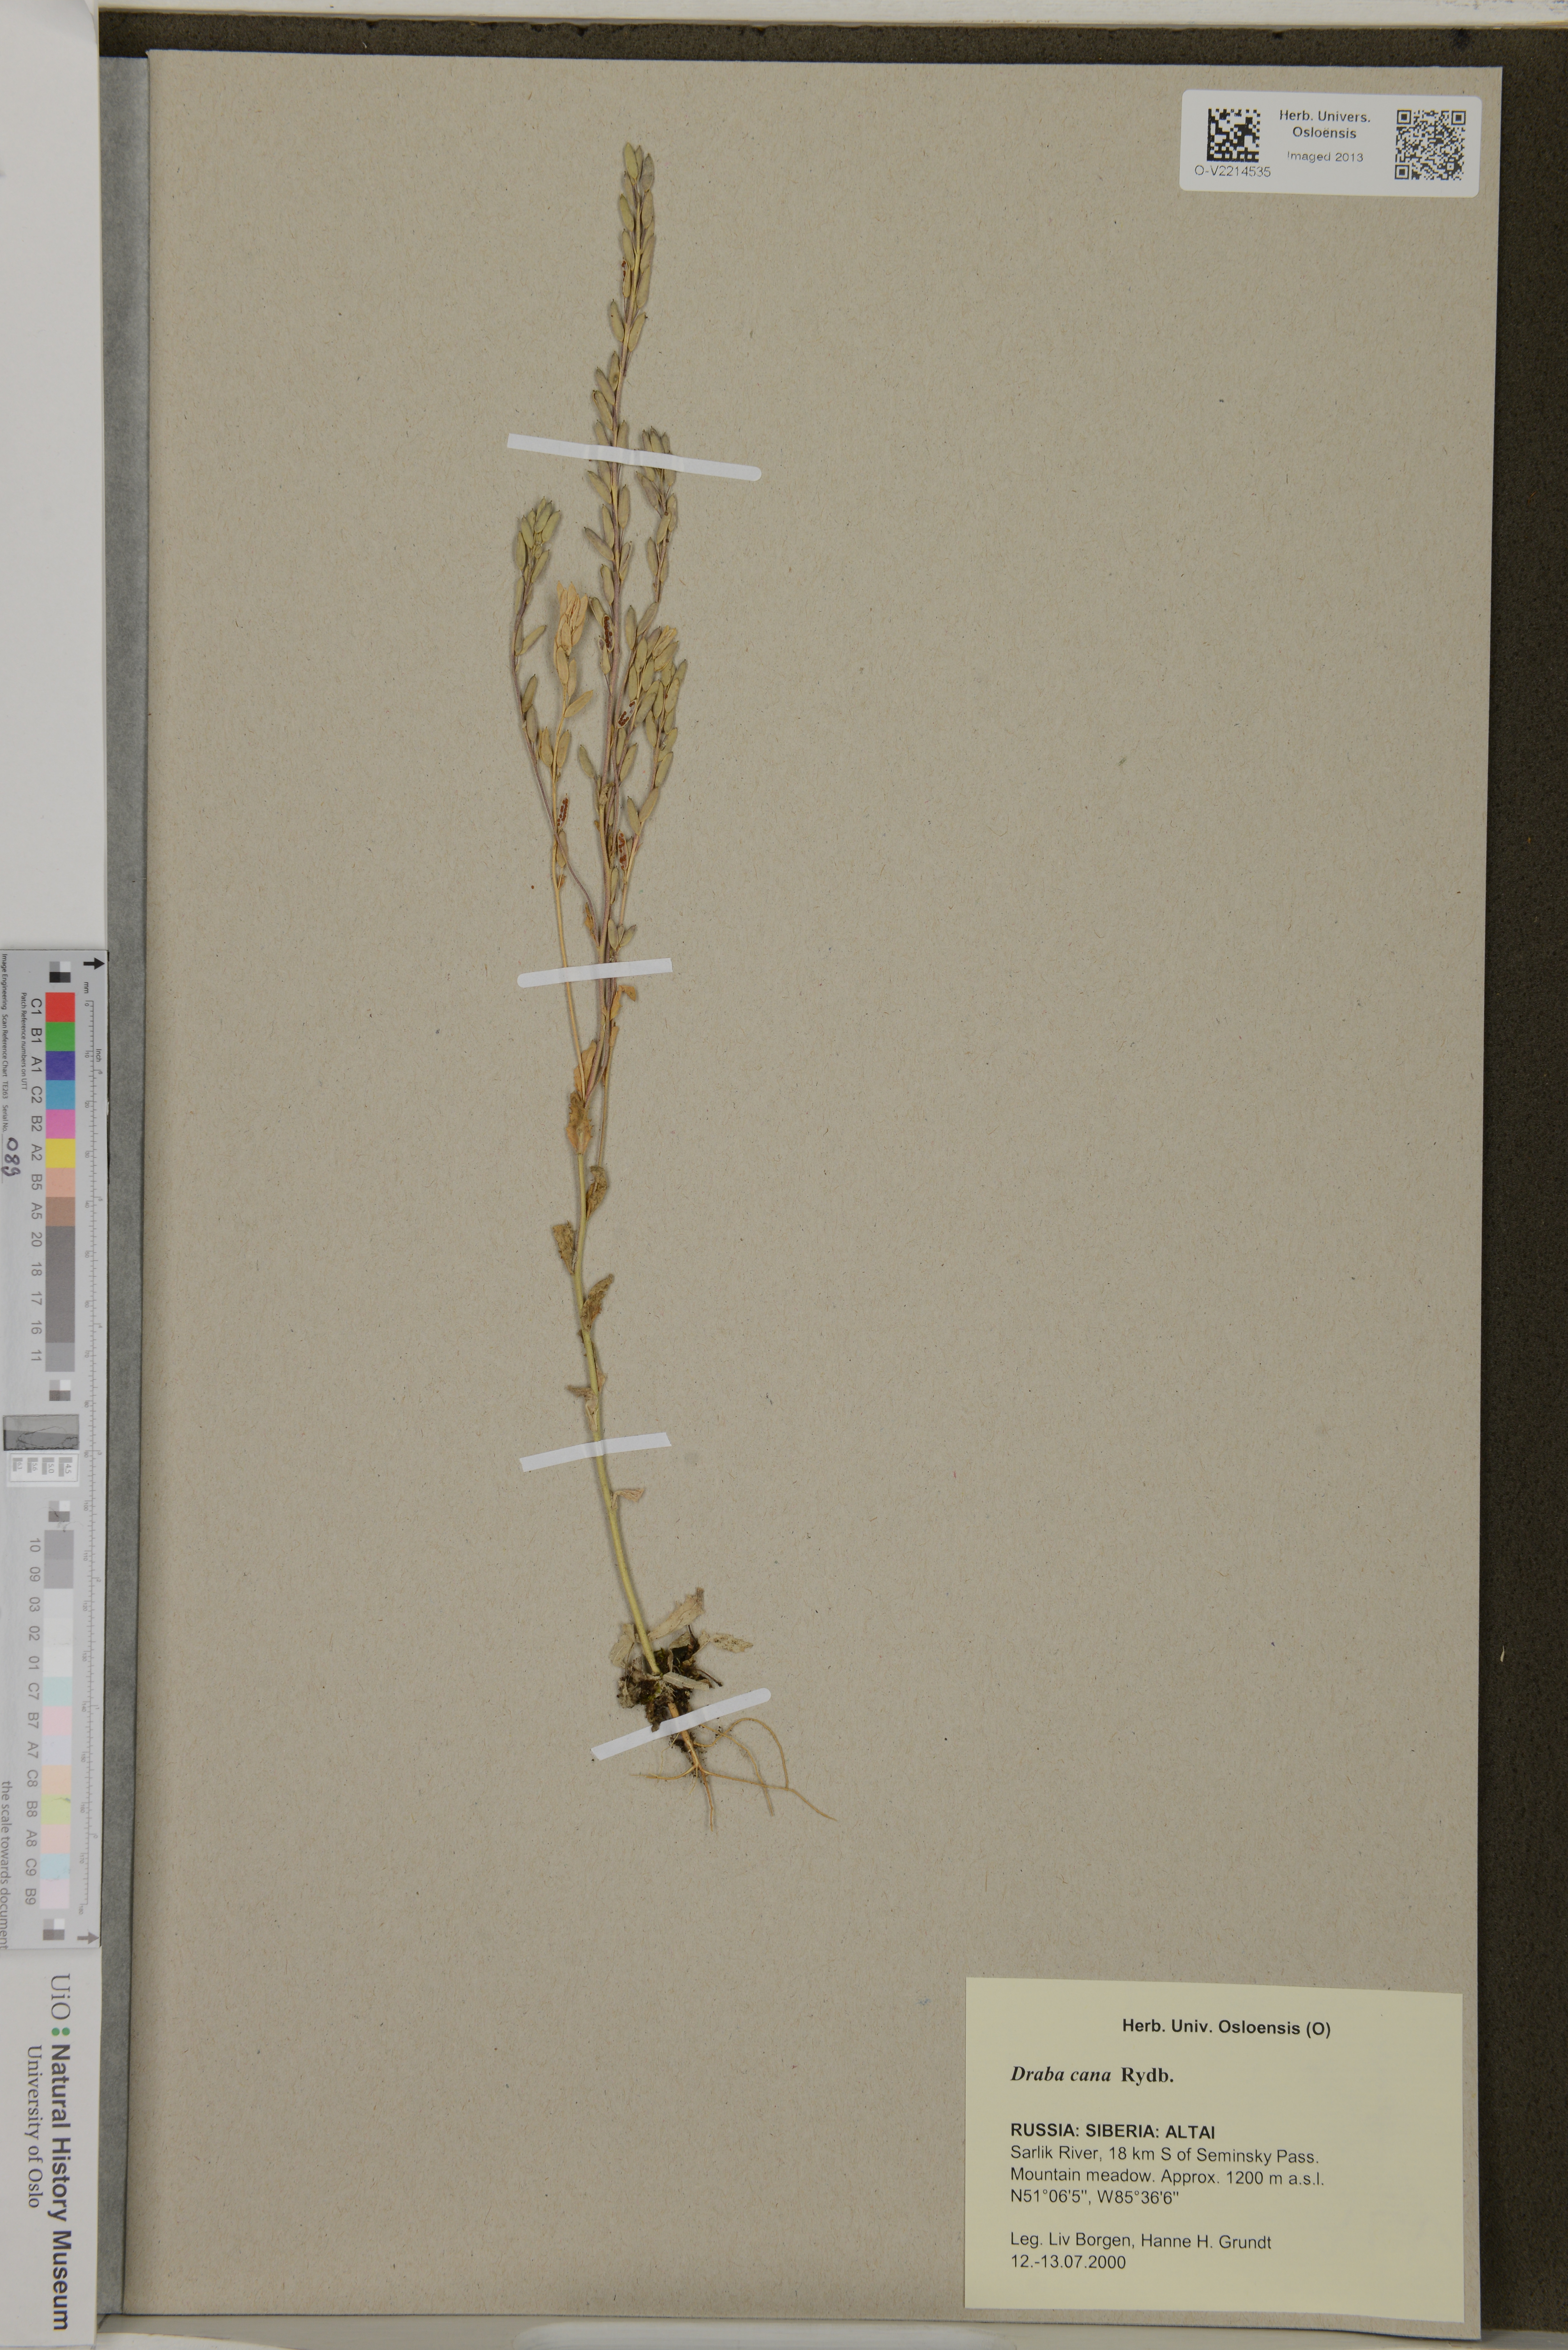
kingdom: Plantae
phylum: Tracheophyta
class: Magnoliopsida
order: Brassicales
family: Brassicaceae
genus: Draba
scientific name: Draba cana
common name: Hoary draba
